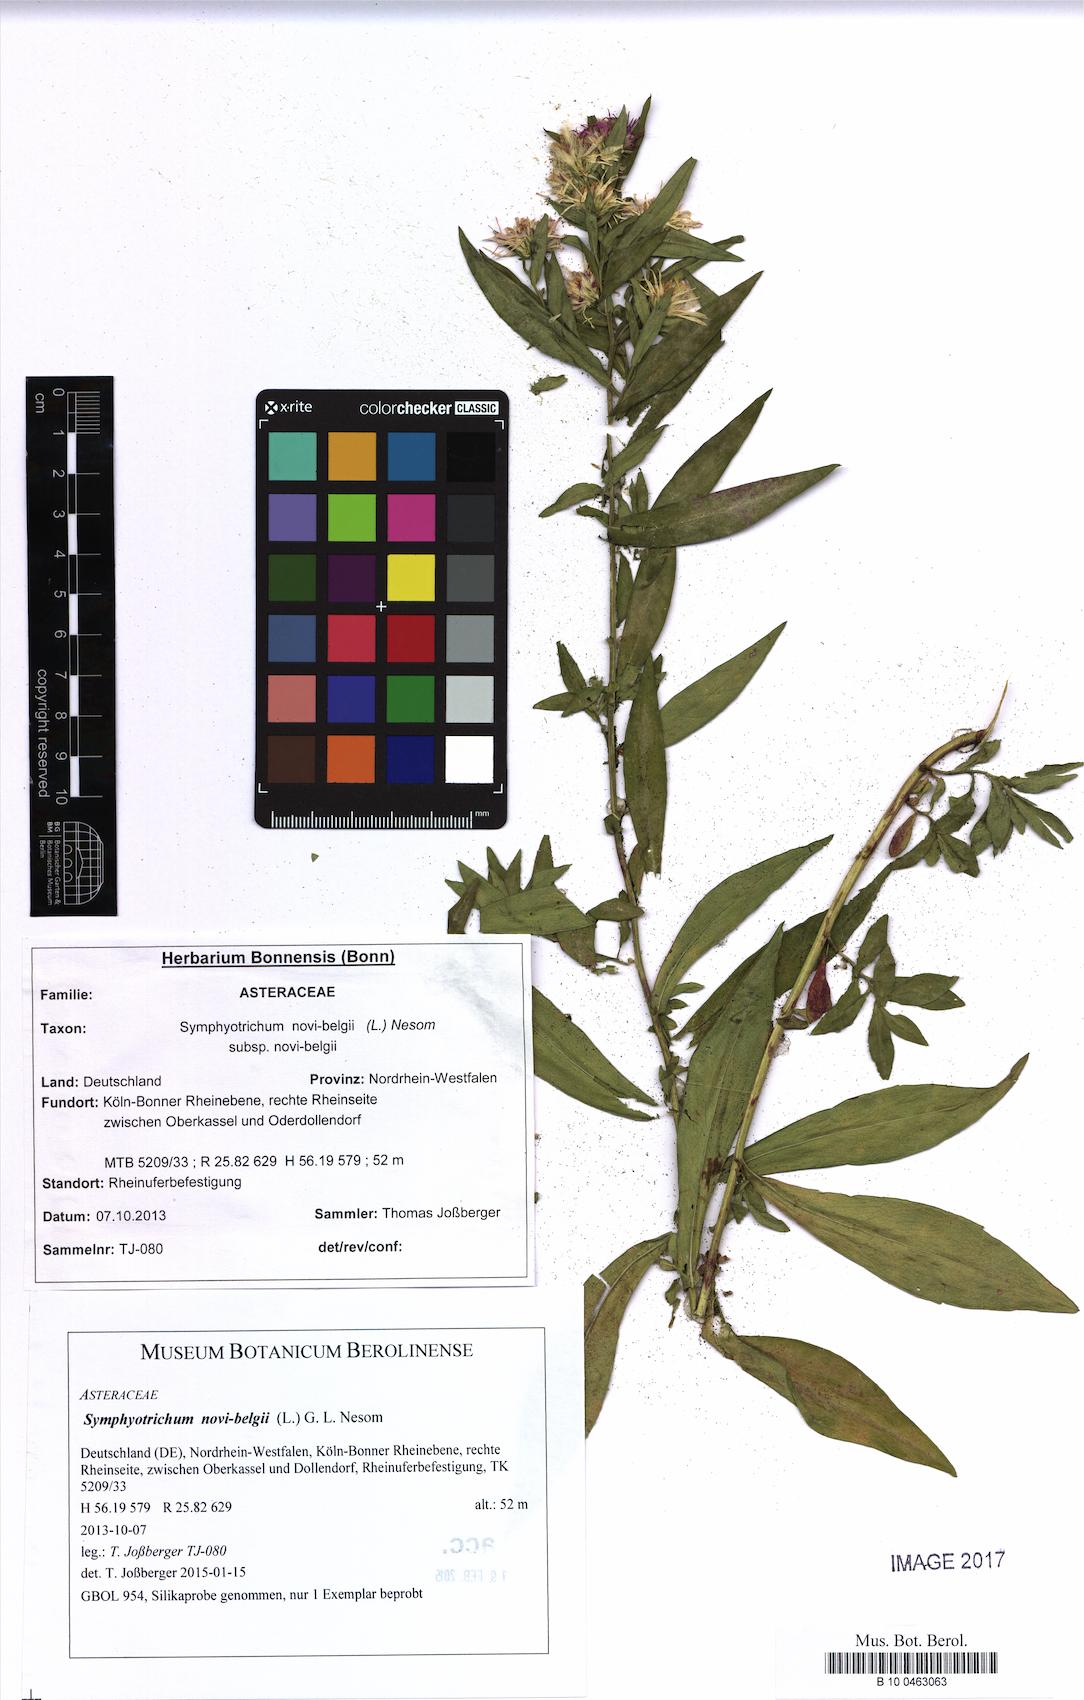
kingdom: Plantae
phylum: Tracheophyta
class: Magnoliopsida
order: Asterales
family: Asteraceae
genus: Symphyotrichum
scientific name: Symphyotrichum novi-belgii
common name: Michaelmas daisy
